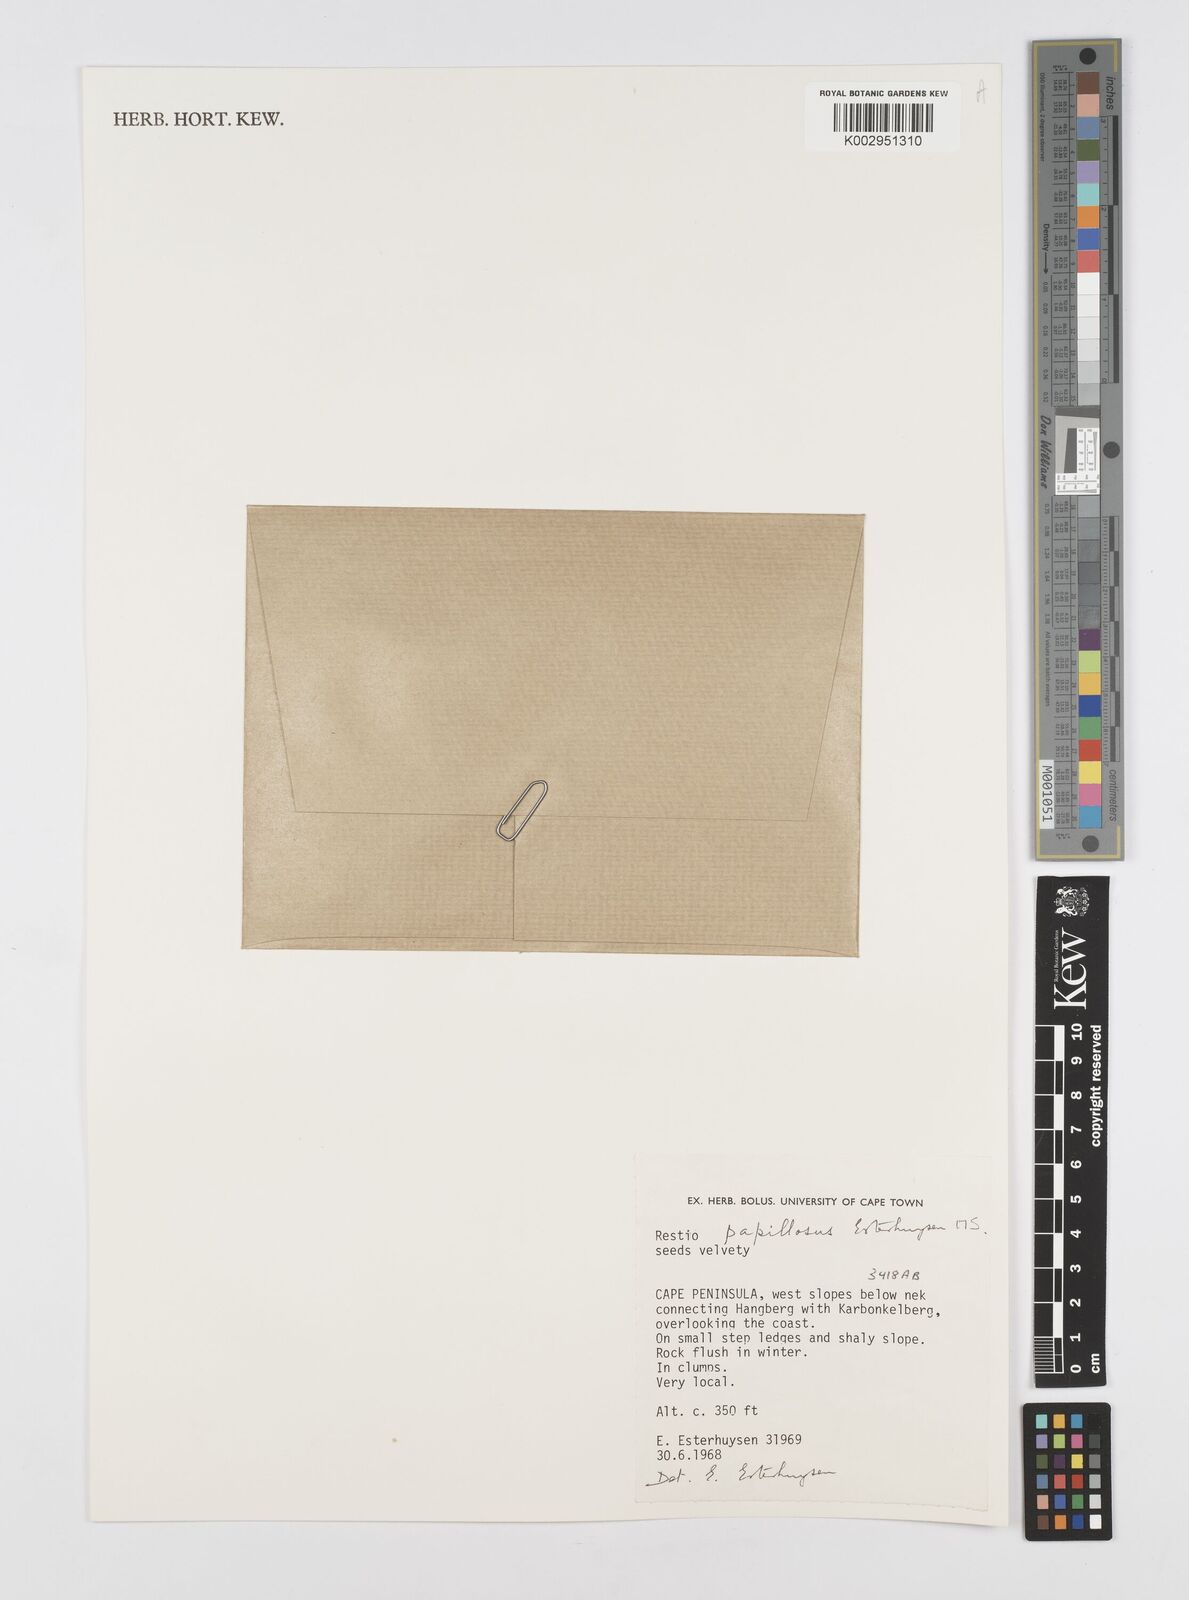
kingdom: Plantae
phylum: Tracheophyta
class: Liliopsida
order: Poales
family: Restionaceae
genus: Restio
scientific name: Restio papillosus
